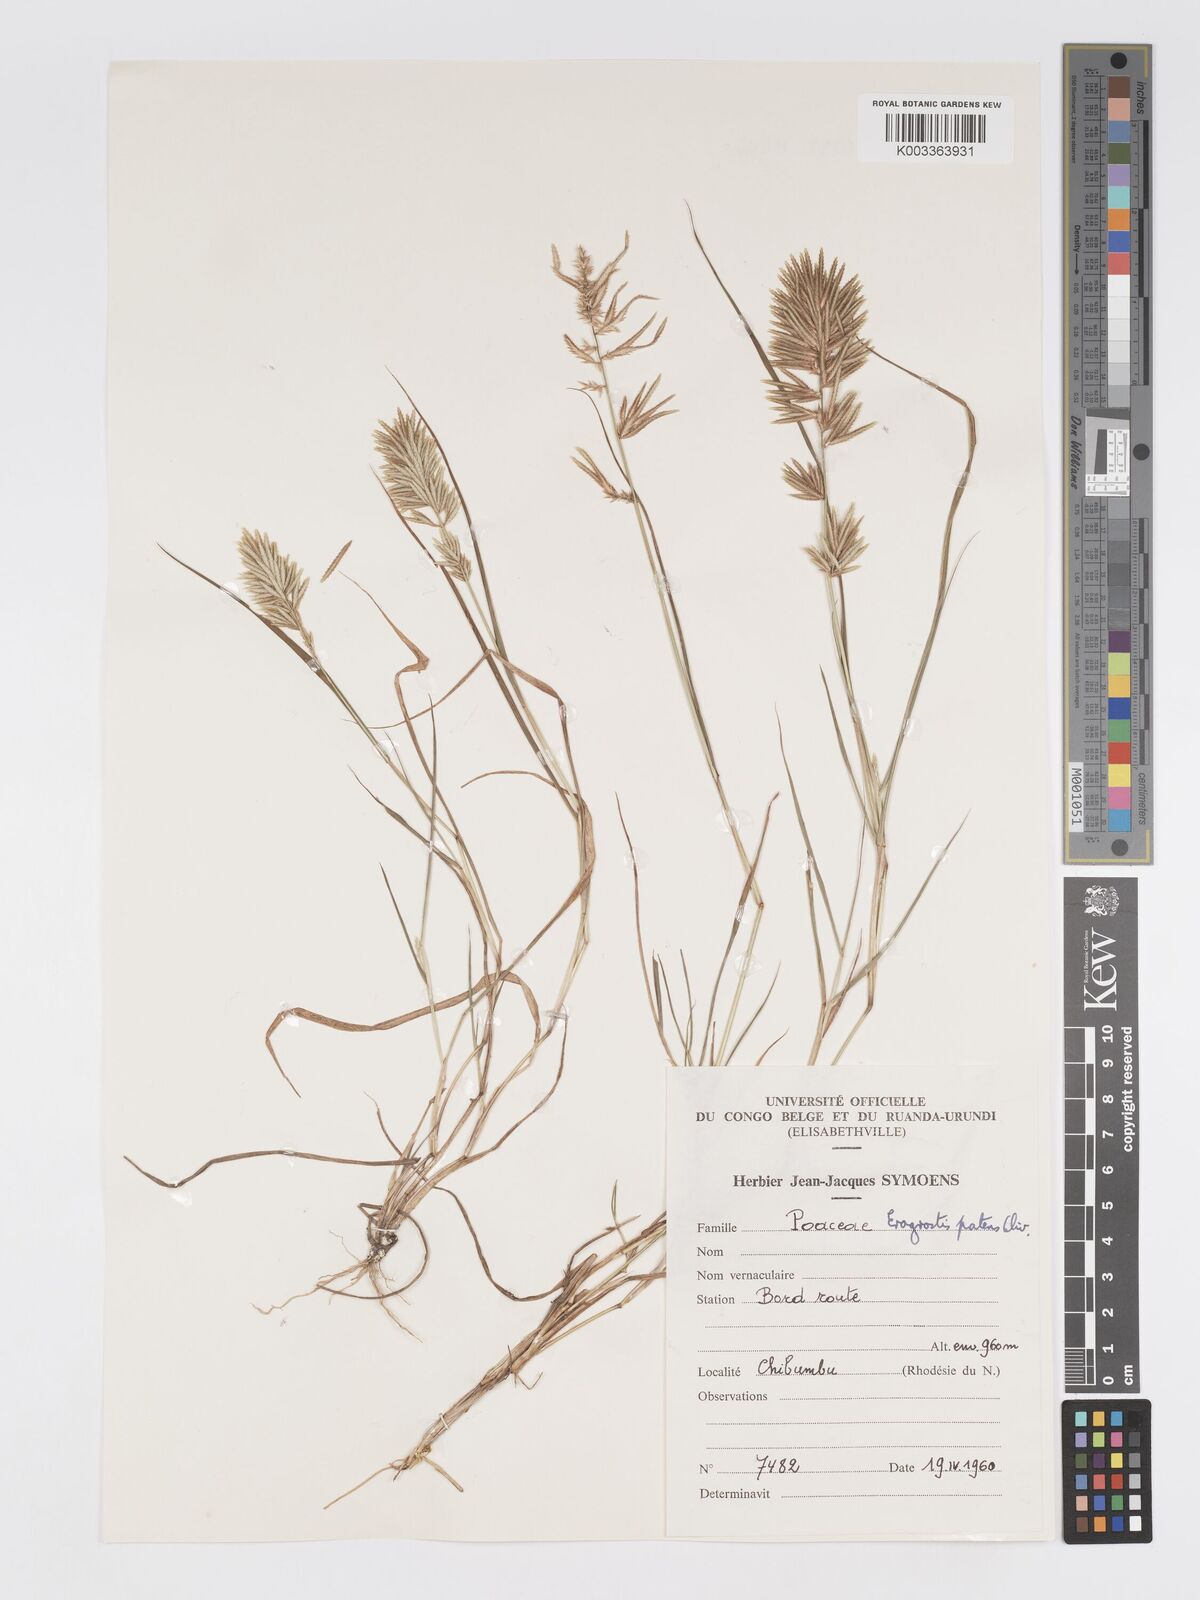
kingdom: Plantae
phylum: Tracheophyta
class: Liliopsida
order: Poales
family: Poaceae
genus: Eragrostis
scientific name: Eragrostis patens
